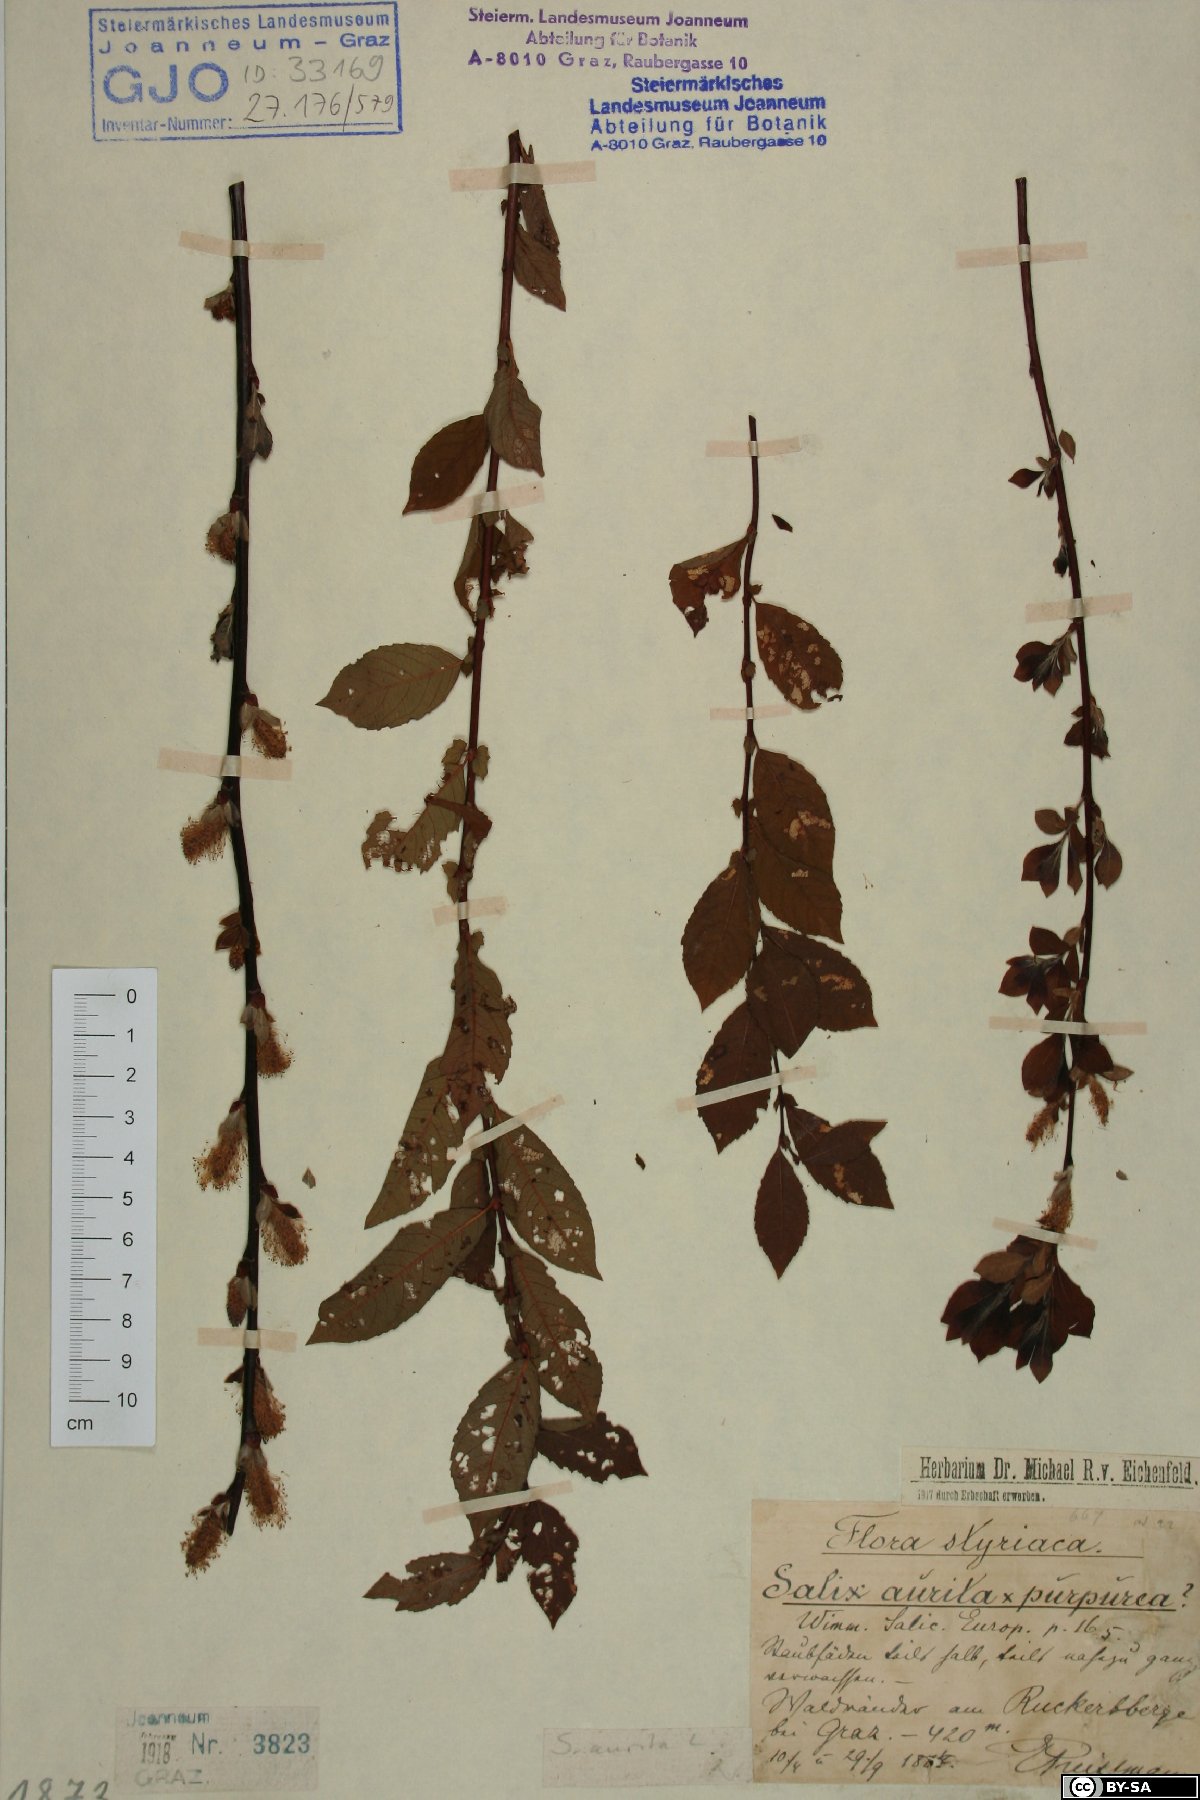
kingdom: Plantae
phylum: Tracheophyta
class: Magnoliopsida
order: Malpighiales
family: Salicaceae
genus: Salix
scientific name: Salix aurita
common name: Eared willow
